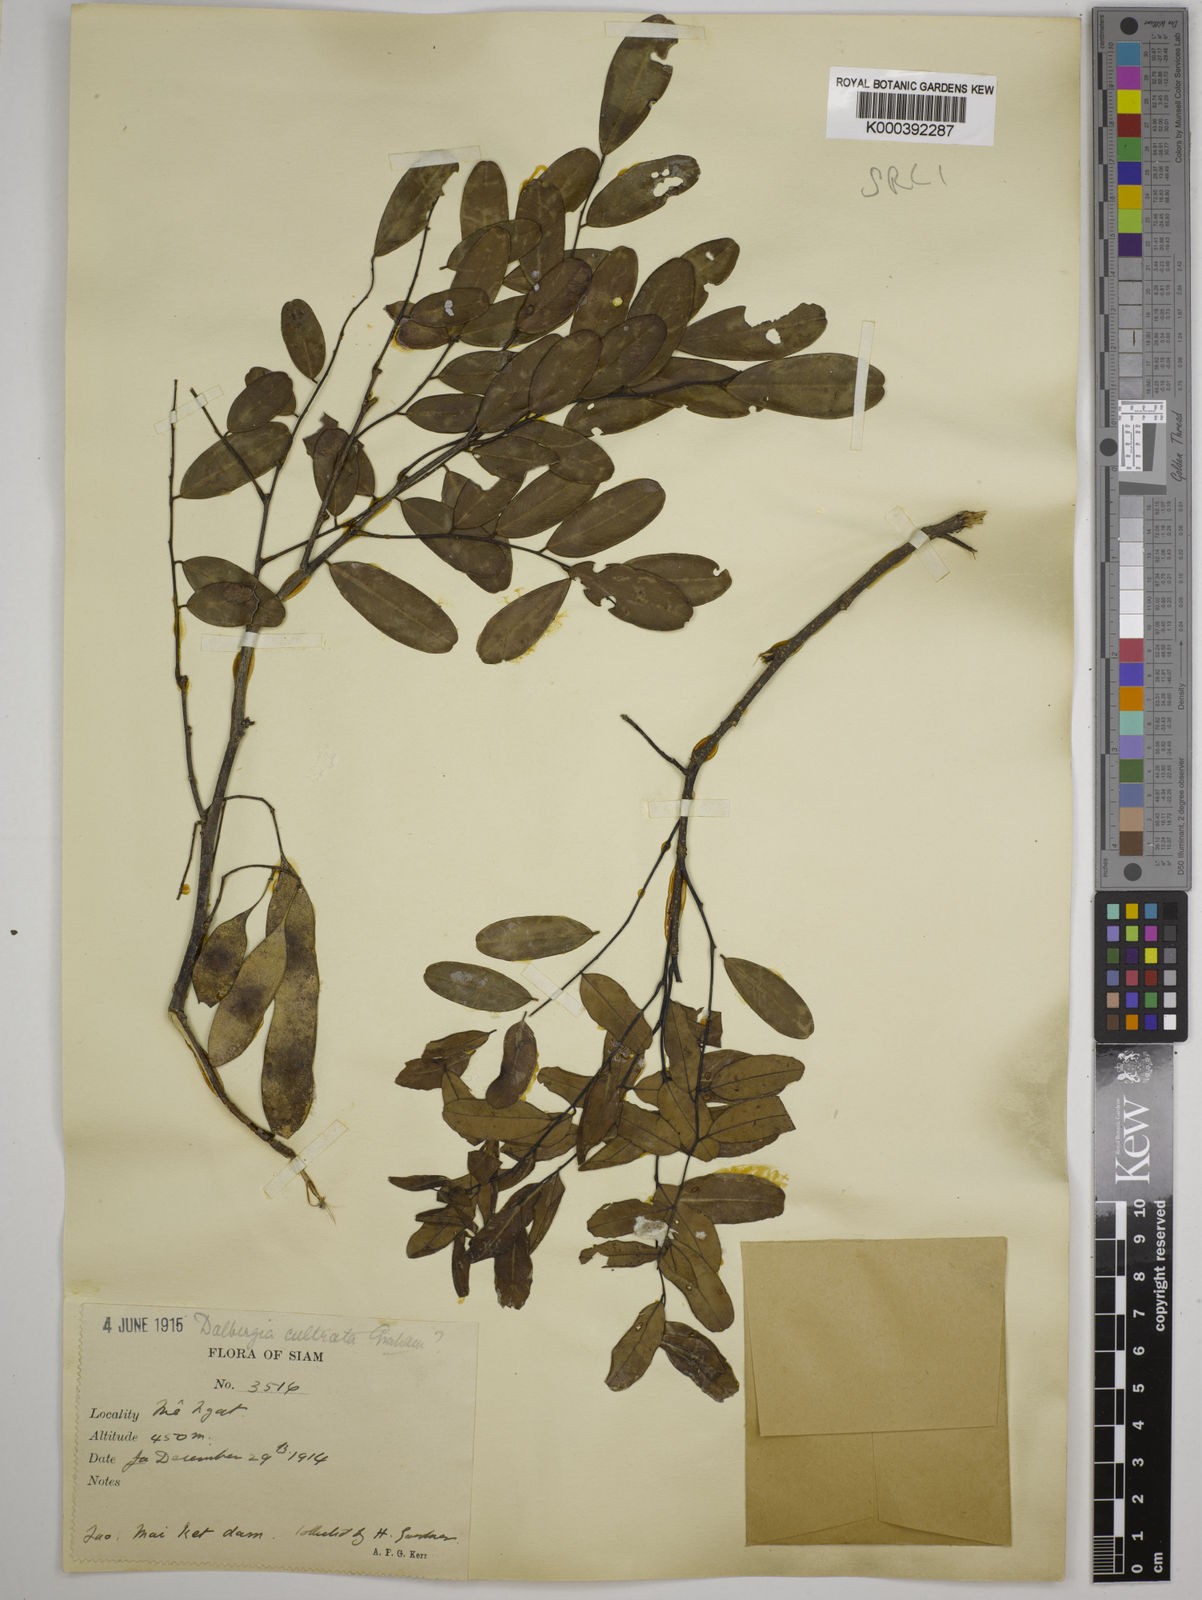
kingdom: Plantae
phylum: Tracheophyta
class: Magnoliopsida
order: Fabales
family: Fabaceae
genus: Dalbergia
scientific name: Dalbergia
